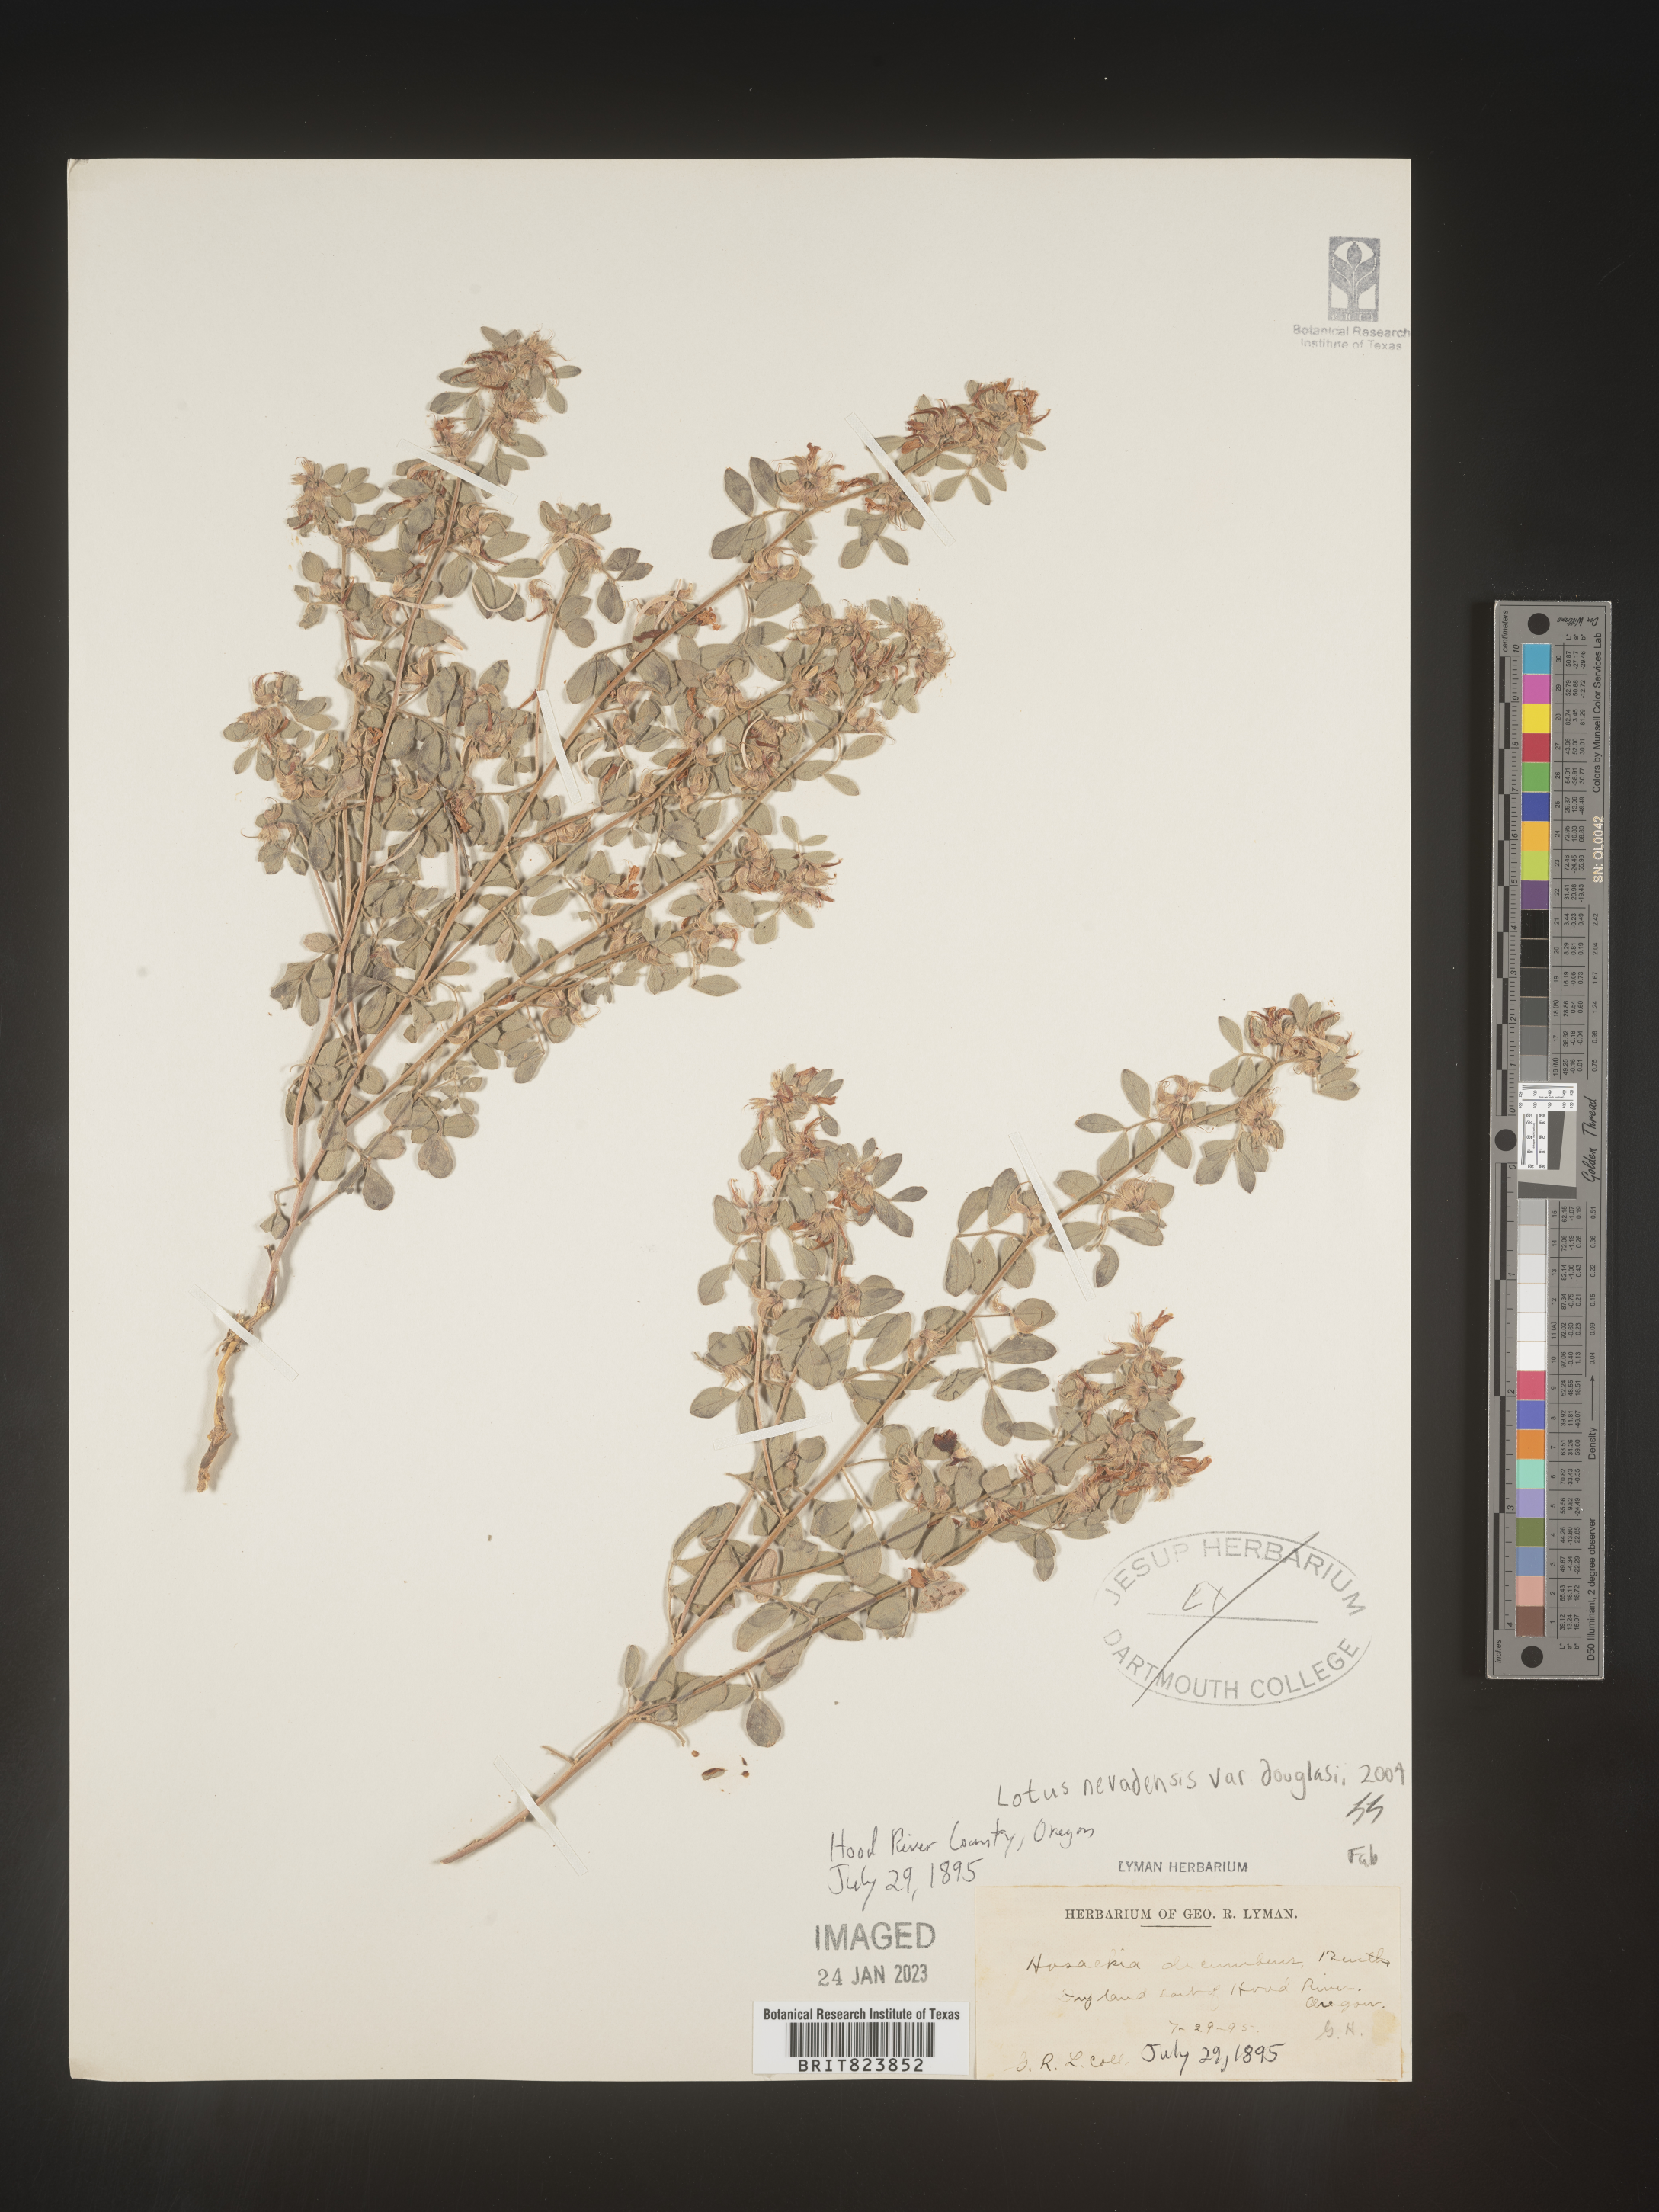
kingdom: Plantae
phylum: Tracheophyta
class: Magnoliopsida
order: Fabales
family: Fabaceae
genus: Acmispon
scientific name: Acmispon decumbens
